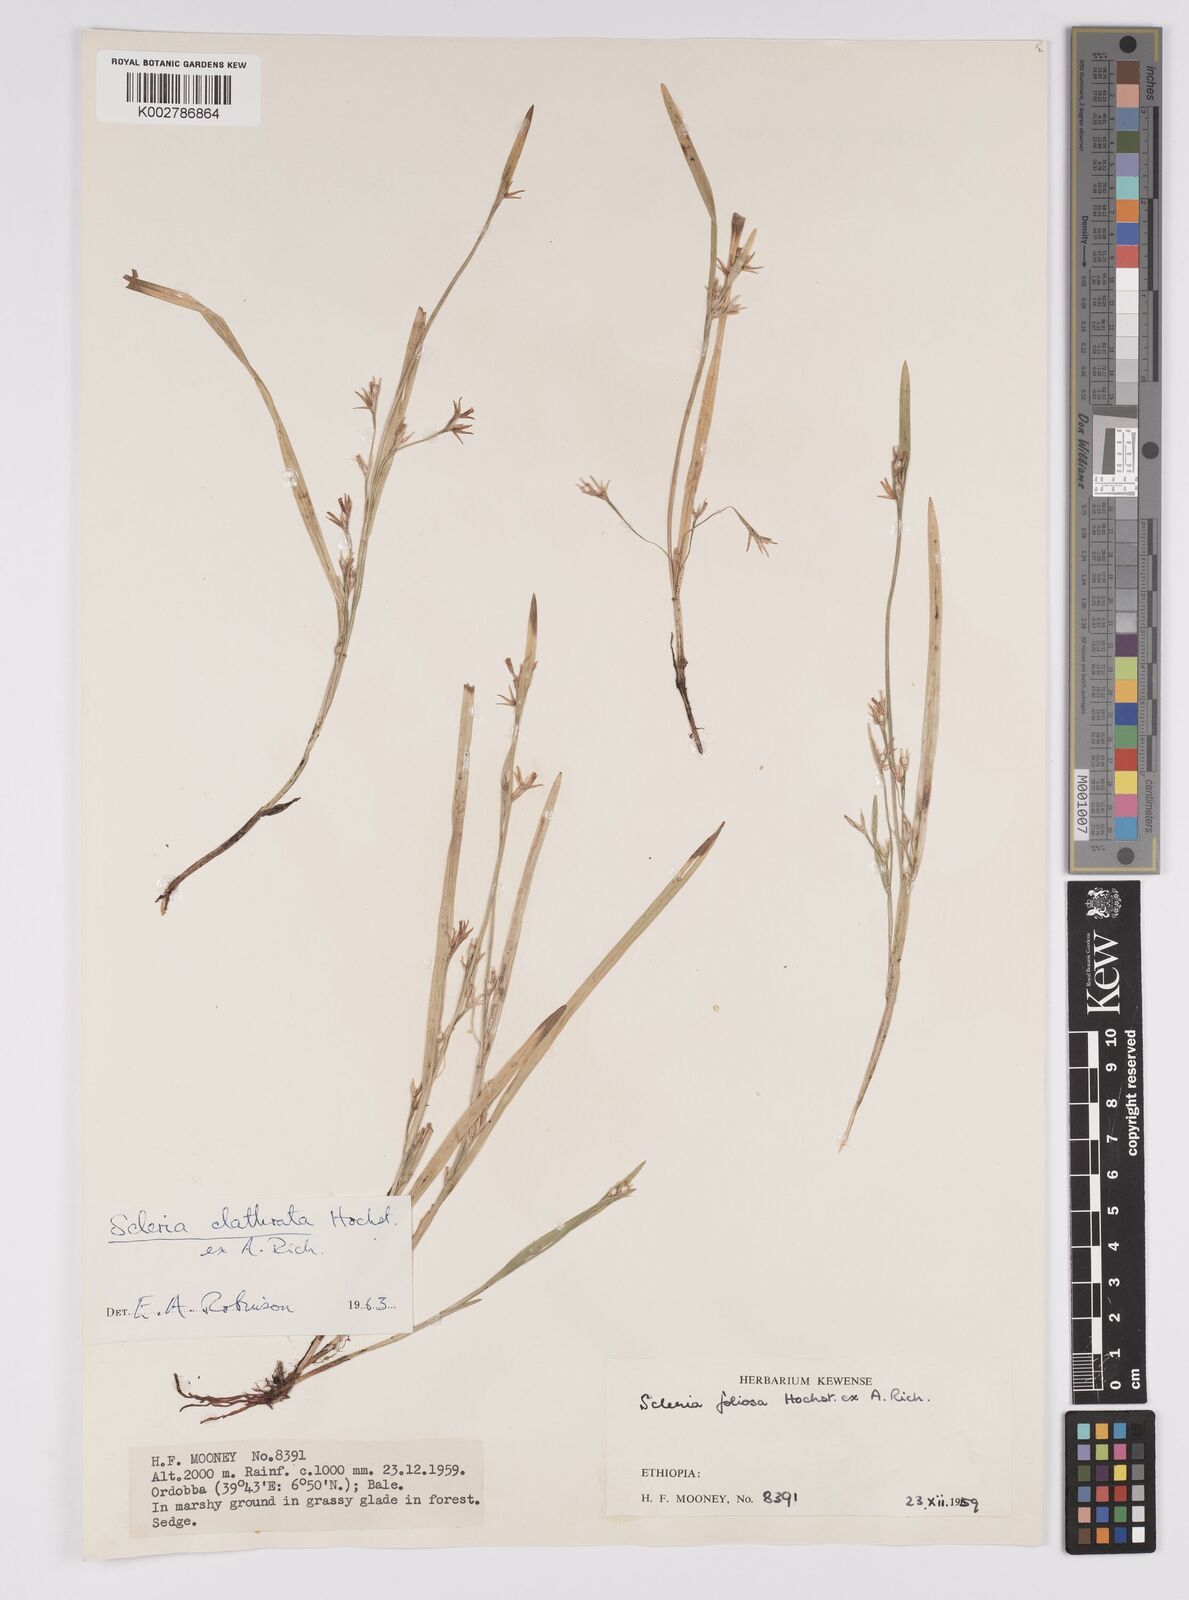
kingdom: Plantae
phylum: Tracheophyta
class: Liliopsida
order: Poales
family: Cyperaceae
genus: Scleria
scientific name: Scleria clathrata
